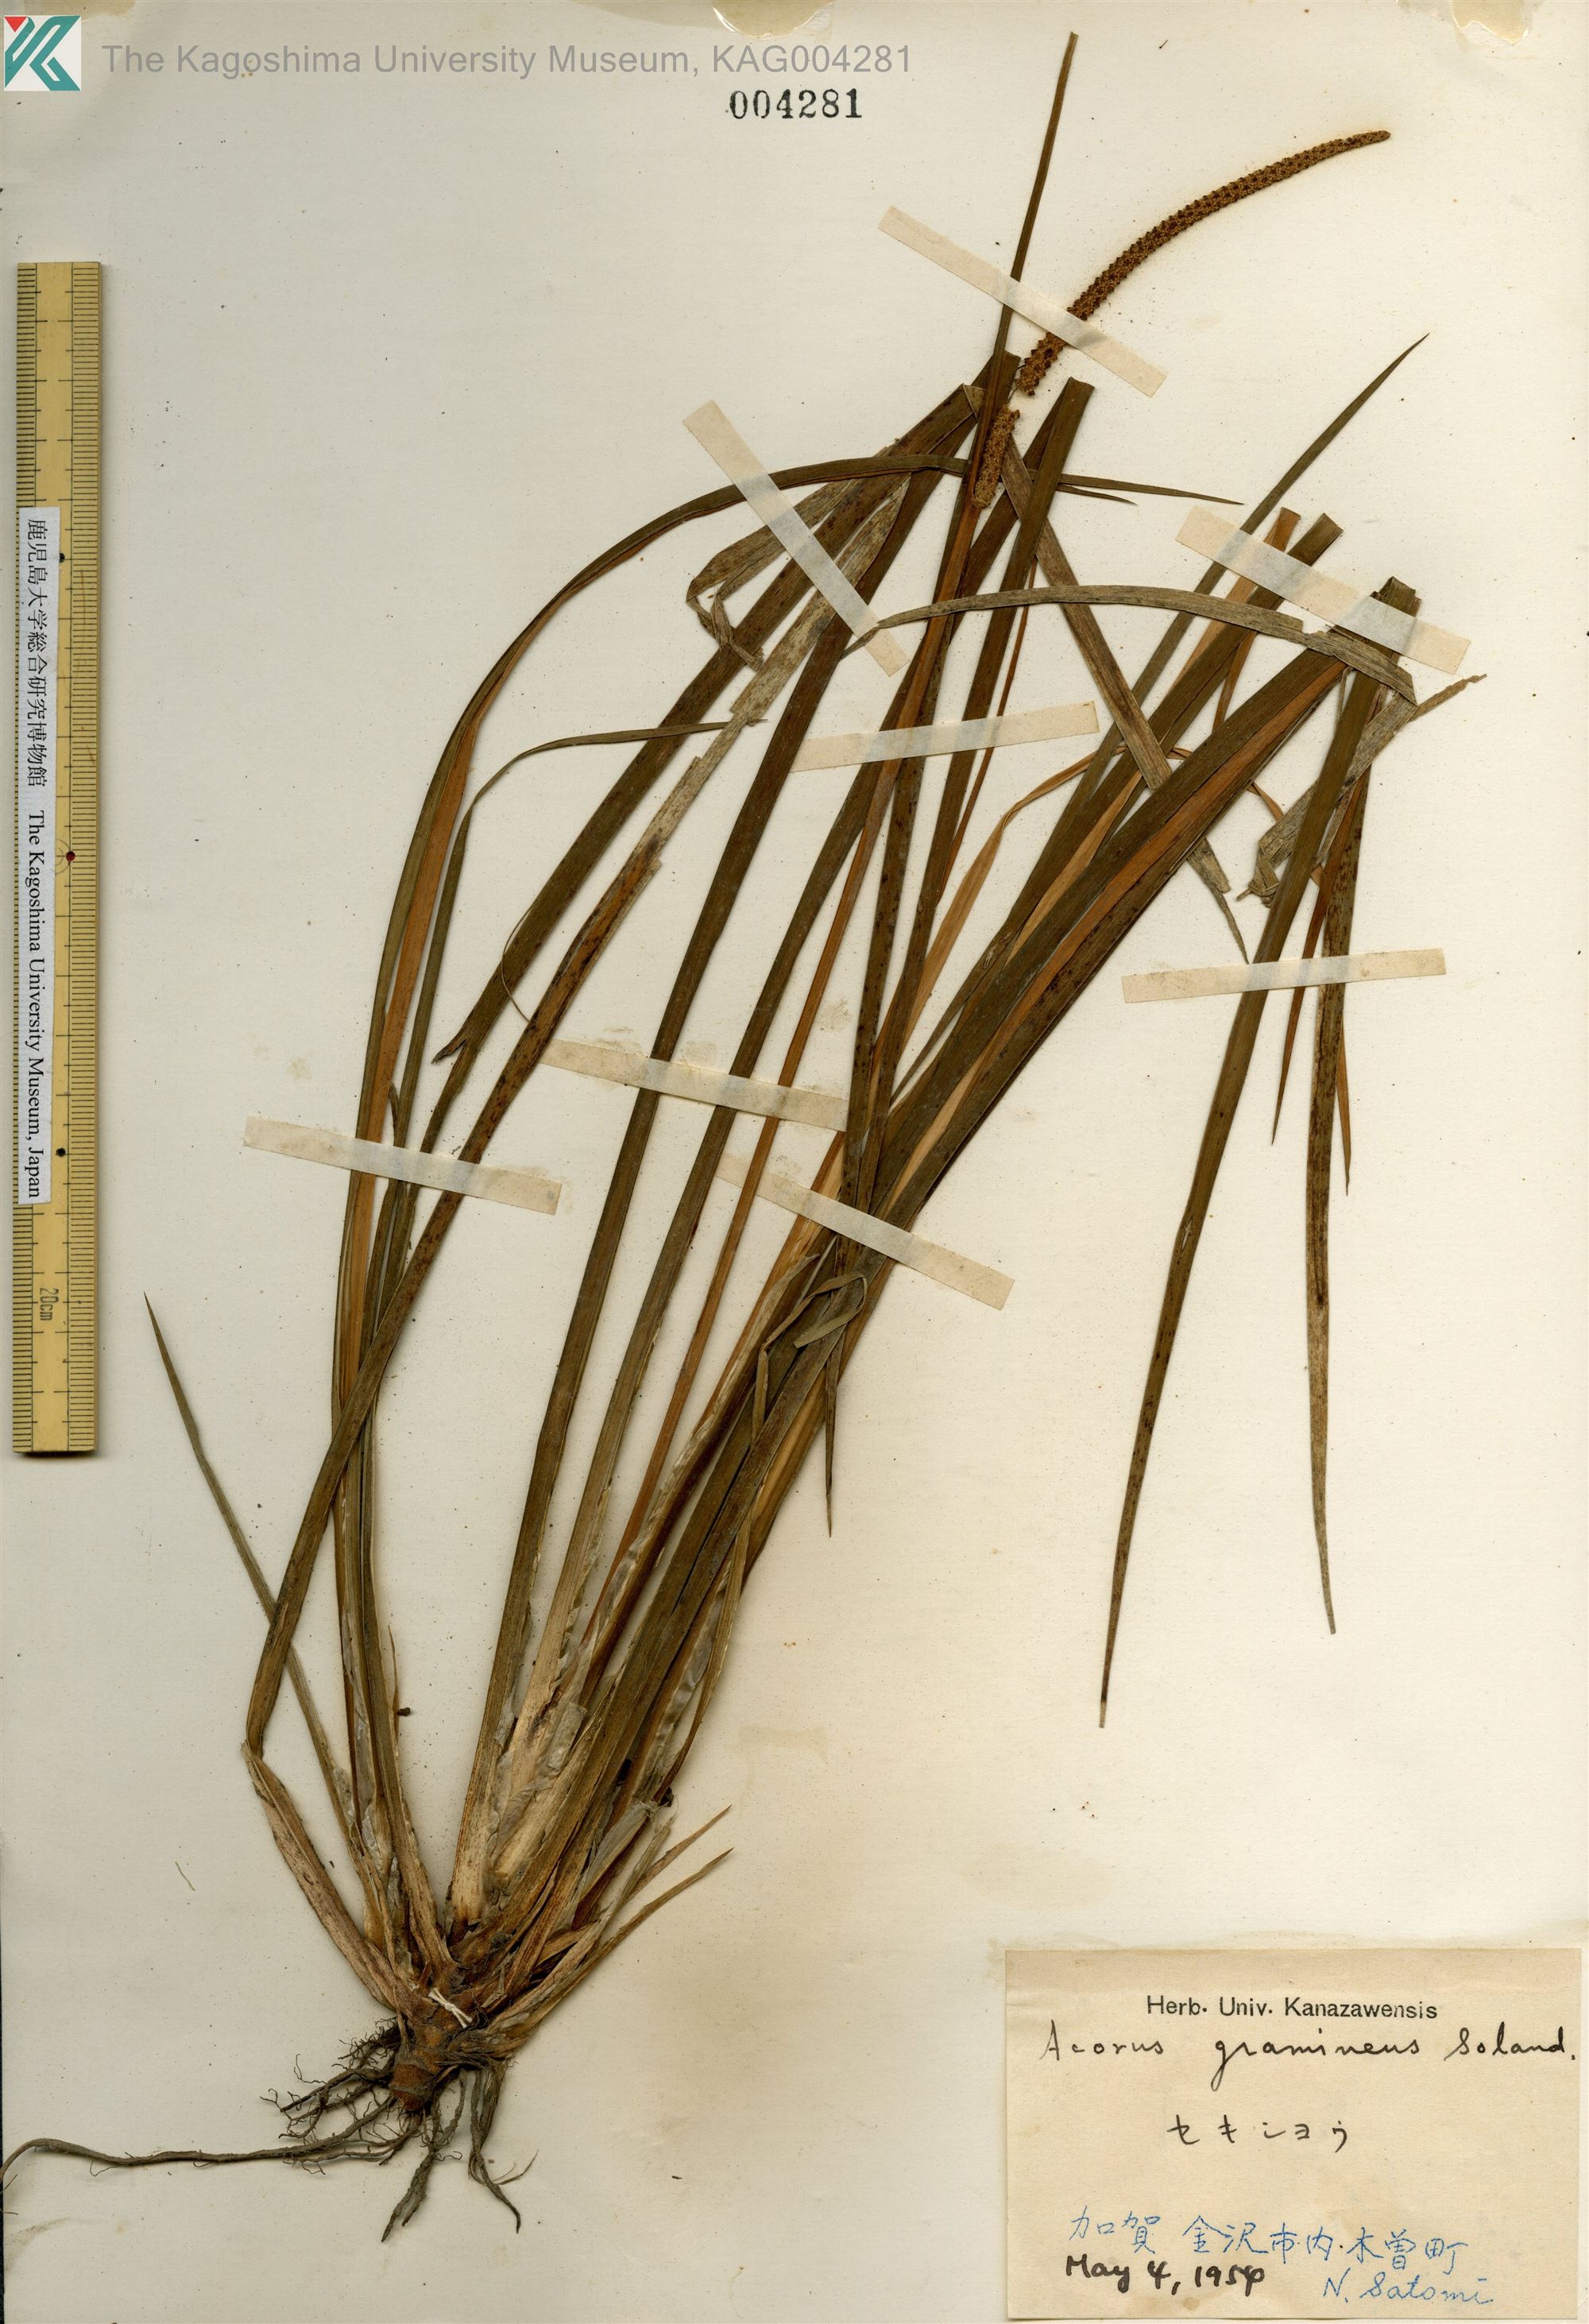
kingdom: Plantae
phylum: Tracheophyta
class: Liliopsida
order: Acorales
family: Acoraceae
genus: Acorus
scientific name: Acorus gramineus
